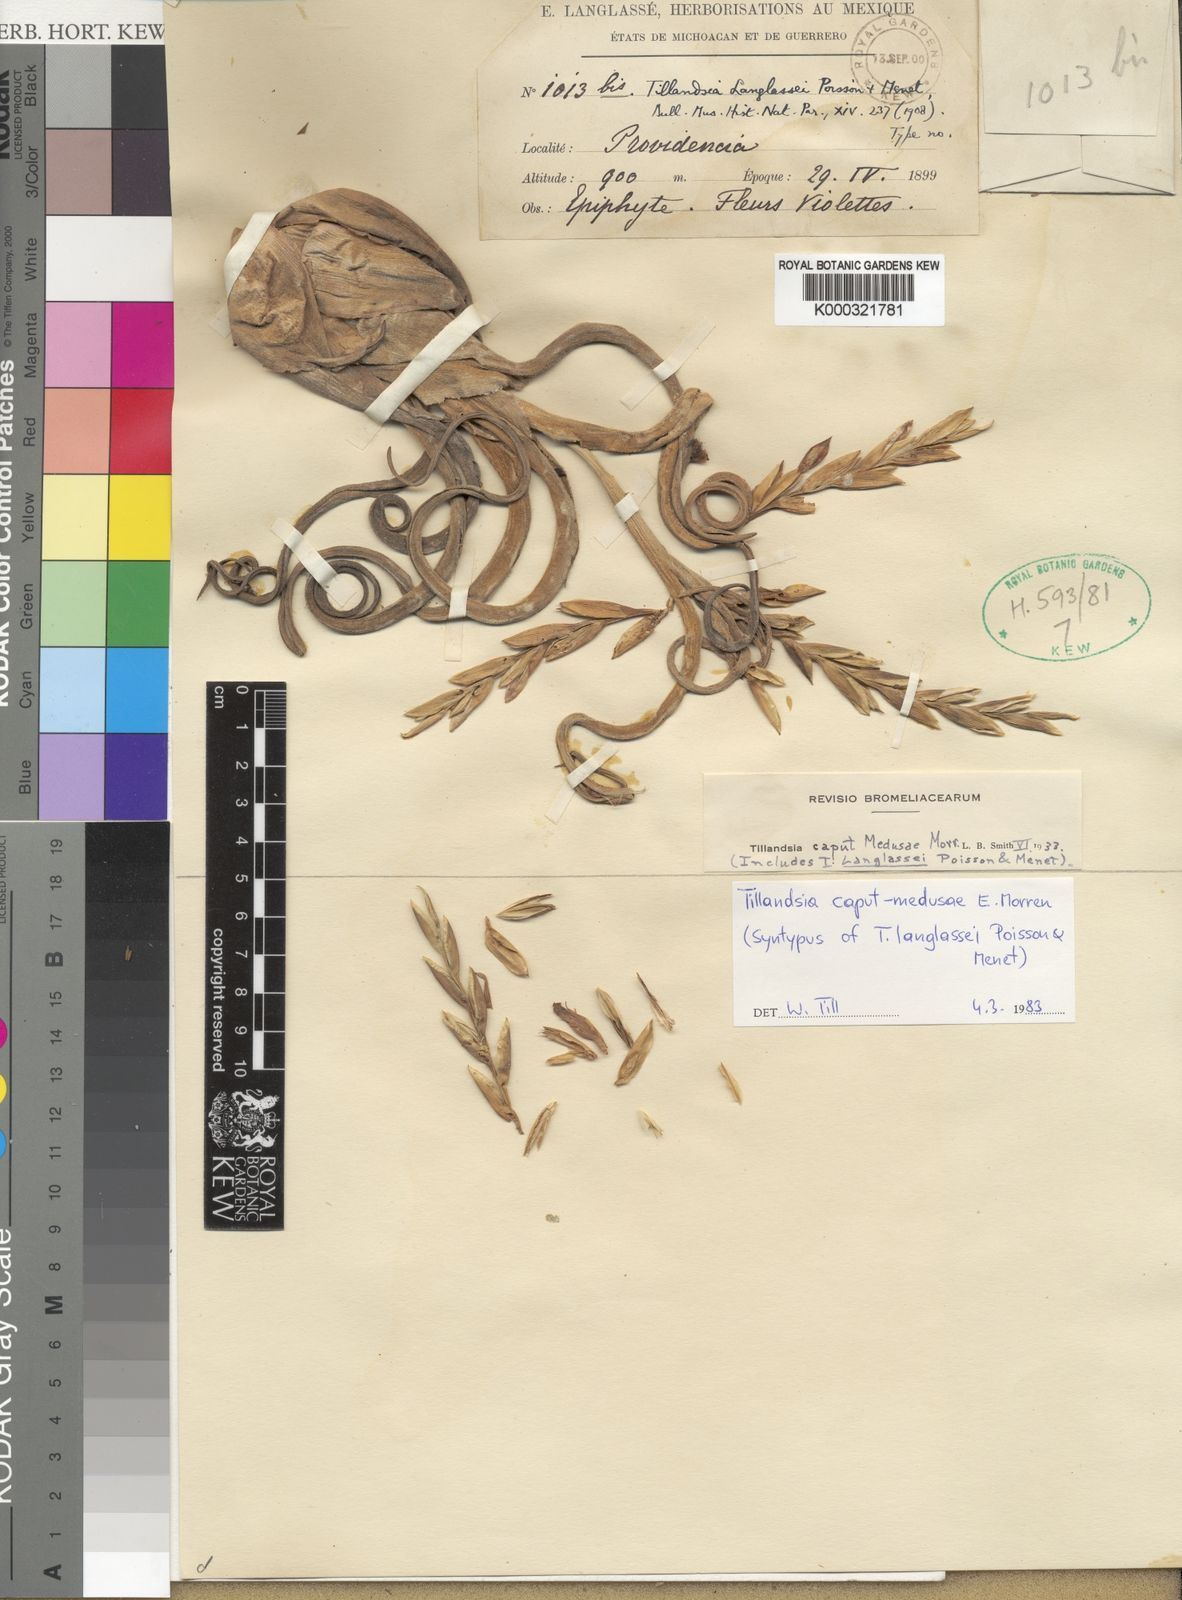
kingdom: Plantae
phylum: Tracheophyta
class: Liliopsida
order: Poales
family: Bromeliaceae
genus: Tillandsia
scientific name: Tillandsia caput-medusae
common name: Octopus plant
